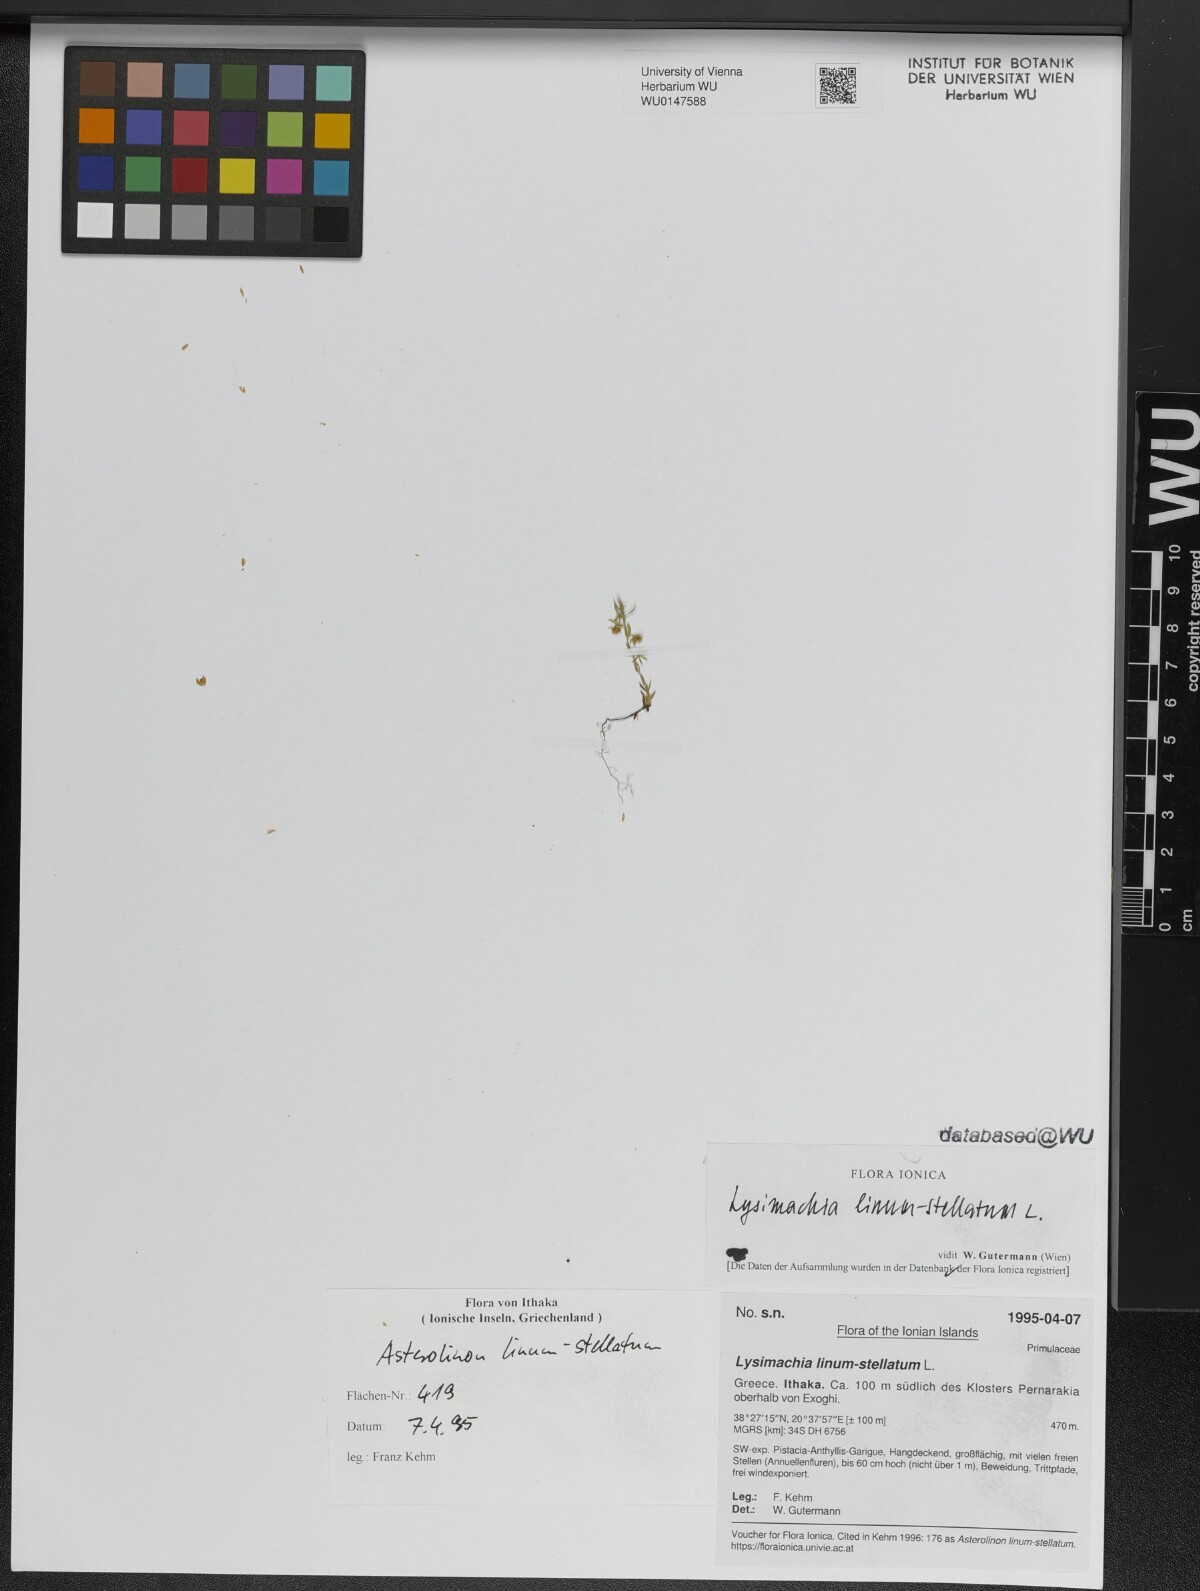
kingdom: Plantae
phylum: Tracheophyta
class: Magnoliopsida
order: Ericales
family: Primulaceae
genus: Lysimachia
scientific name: Lysimachia linum-stellatum
